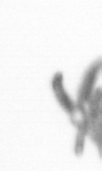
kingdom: Animalia
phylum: Arthropoda
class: Copepoda
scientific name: Copepoda
